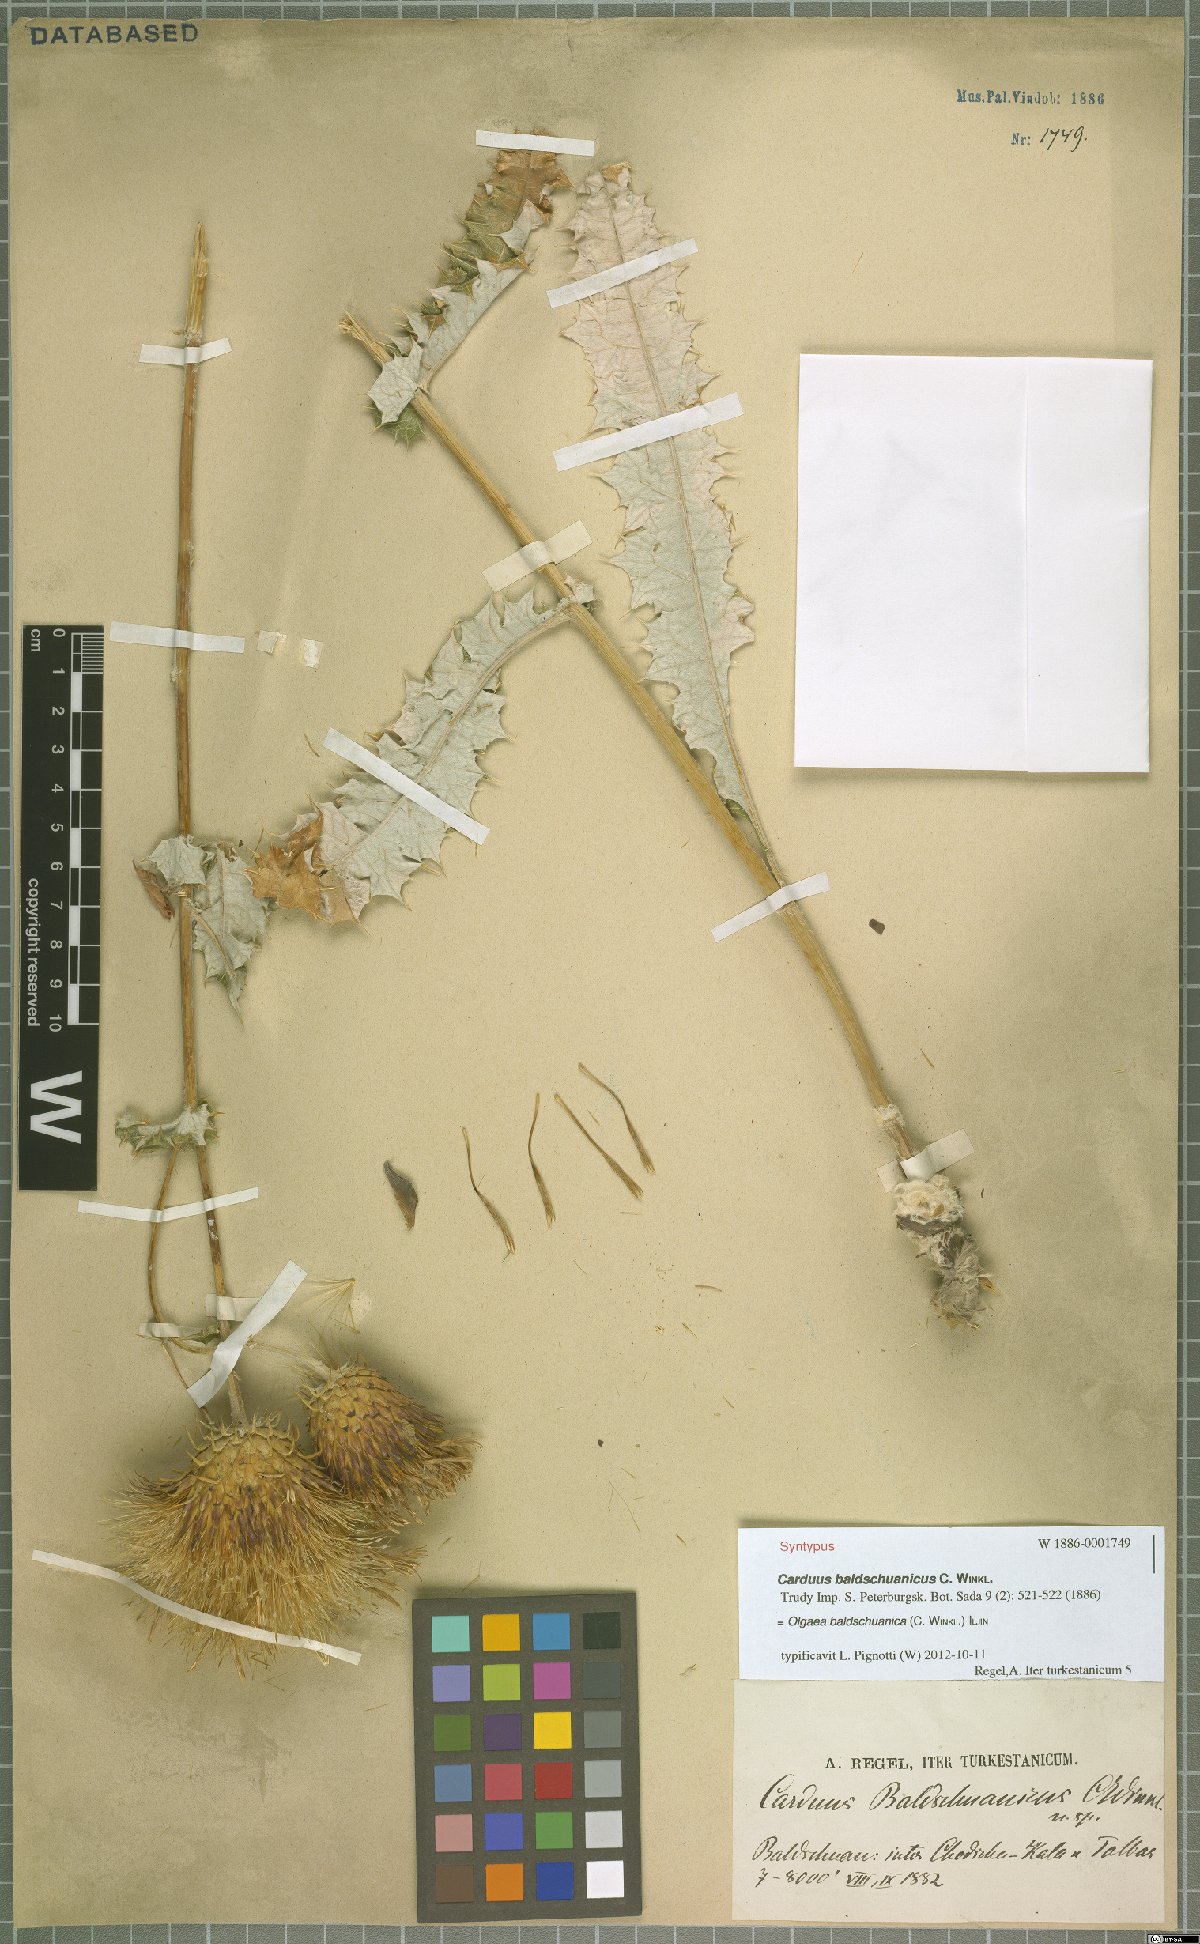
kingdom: Plantae
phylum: Tracheophyta
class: Magnoliopsida
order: Asterales
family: Asteraceae
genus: Olgaea
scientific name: Olgaea baldschuanica
